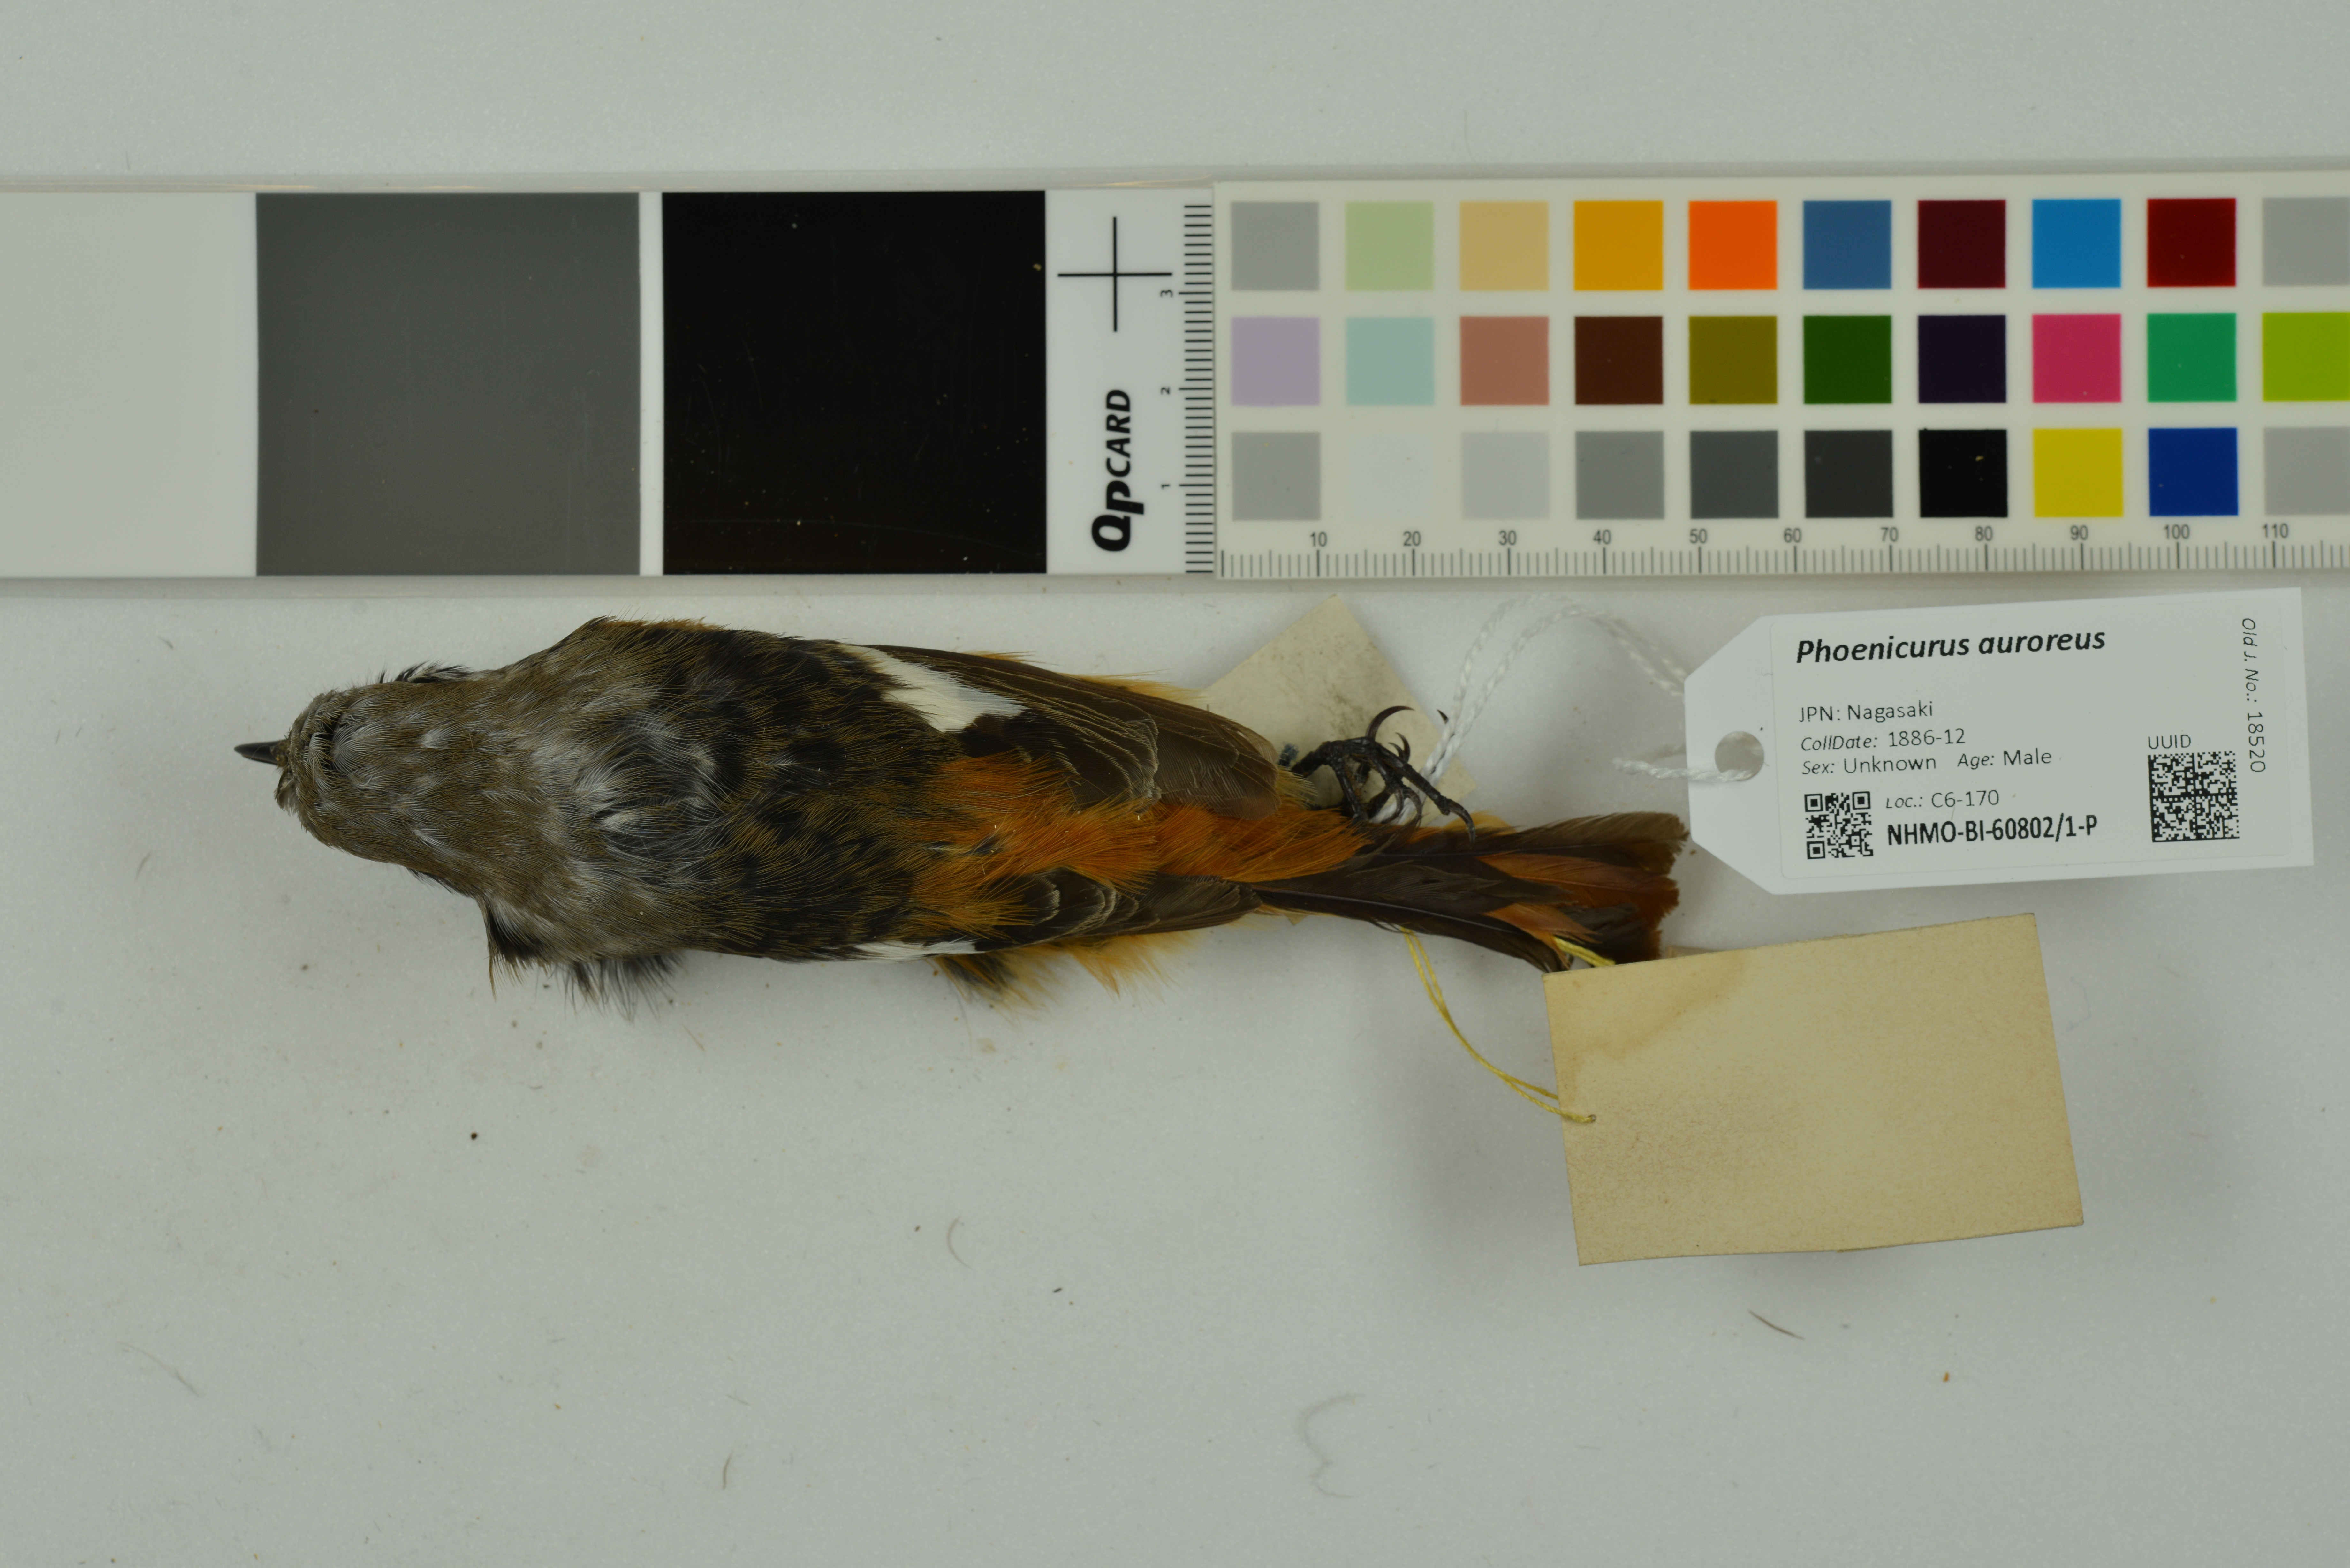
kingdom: Animalia
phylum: Chordata
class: Aves
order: Passeriformes
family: Muscicapidae
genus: Phoenicurus
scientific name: Phoenicurus auroreus
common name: Daurian redstart
